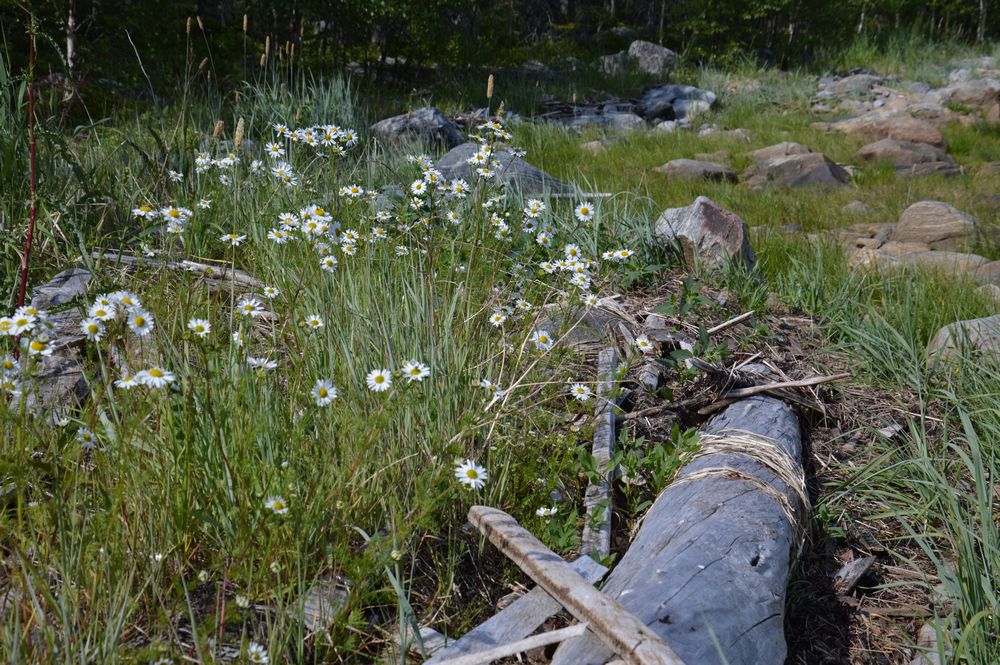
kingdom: Plantae
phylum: Tracheophyta
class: Magnoliopsida
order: Asterales
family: Asteraceae
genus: Tripleurospermum
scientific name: Tripleurospermum maritimum
